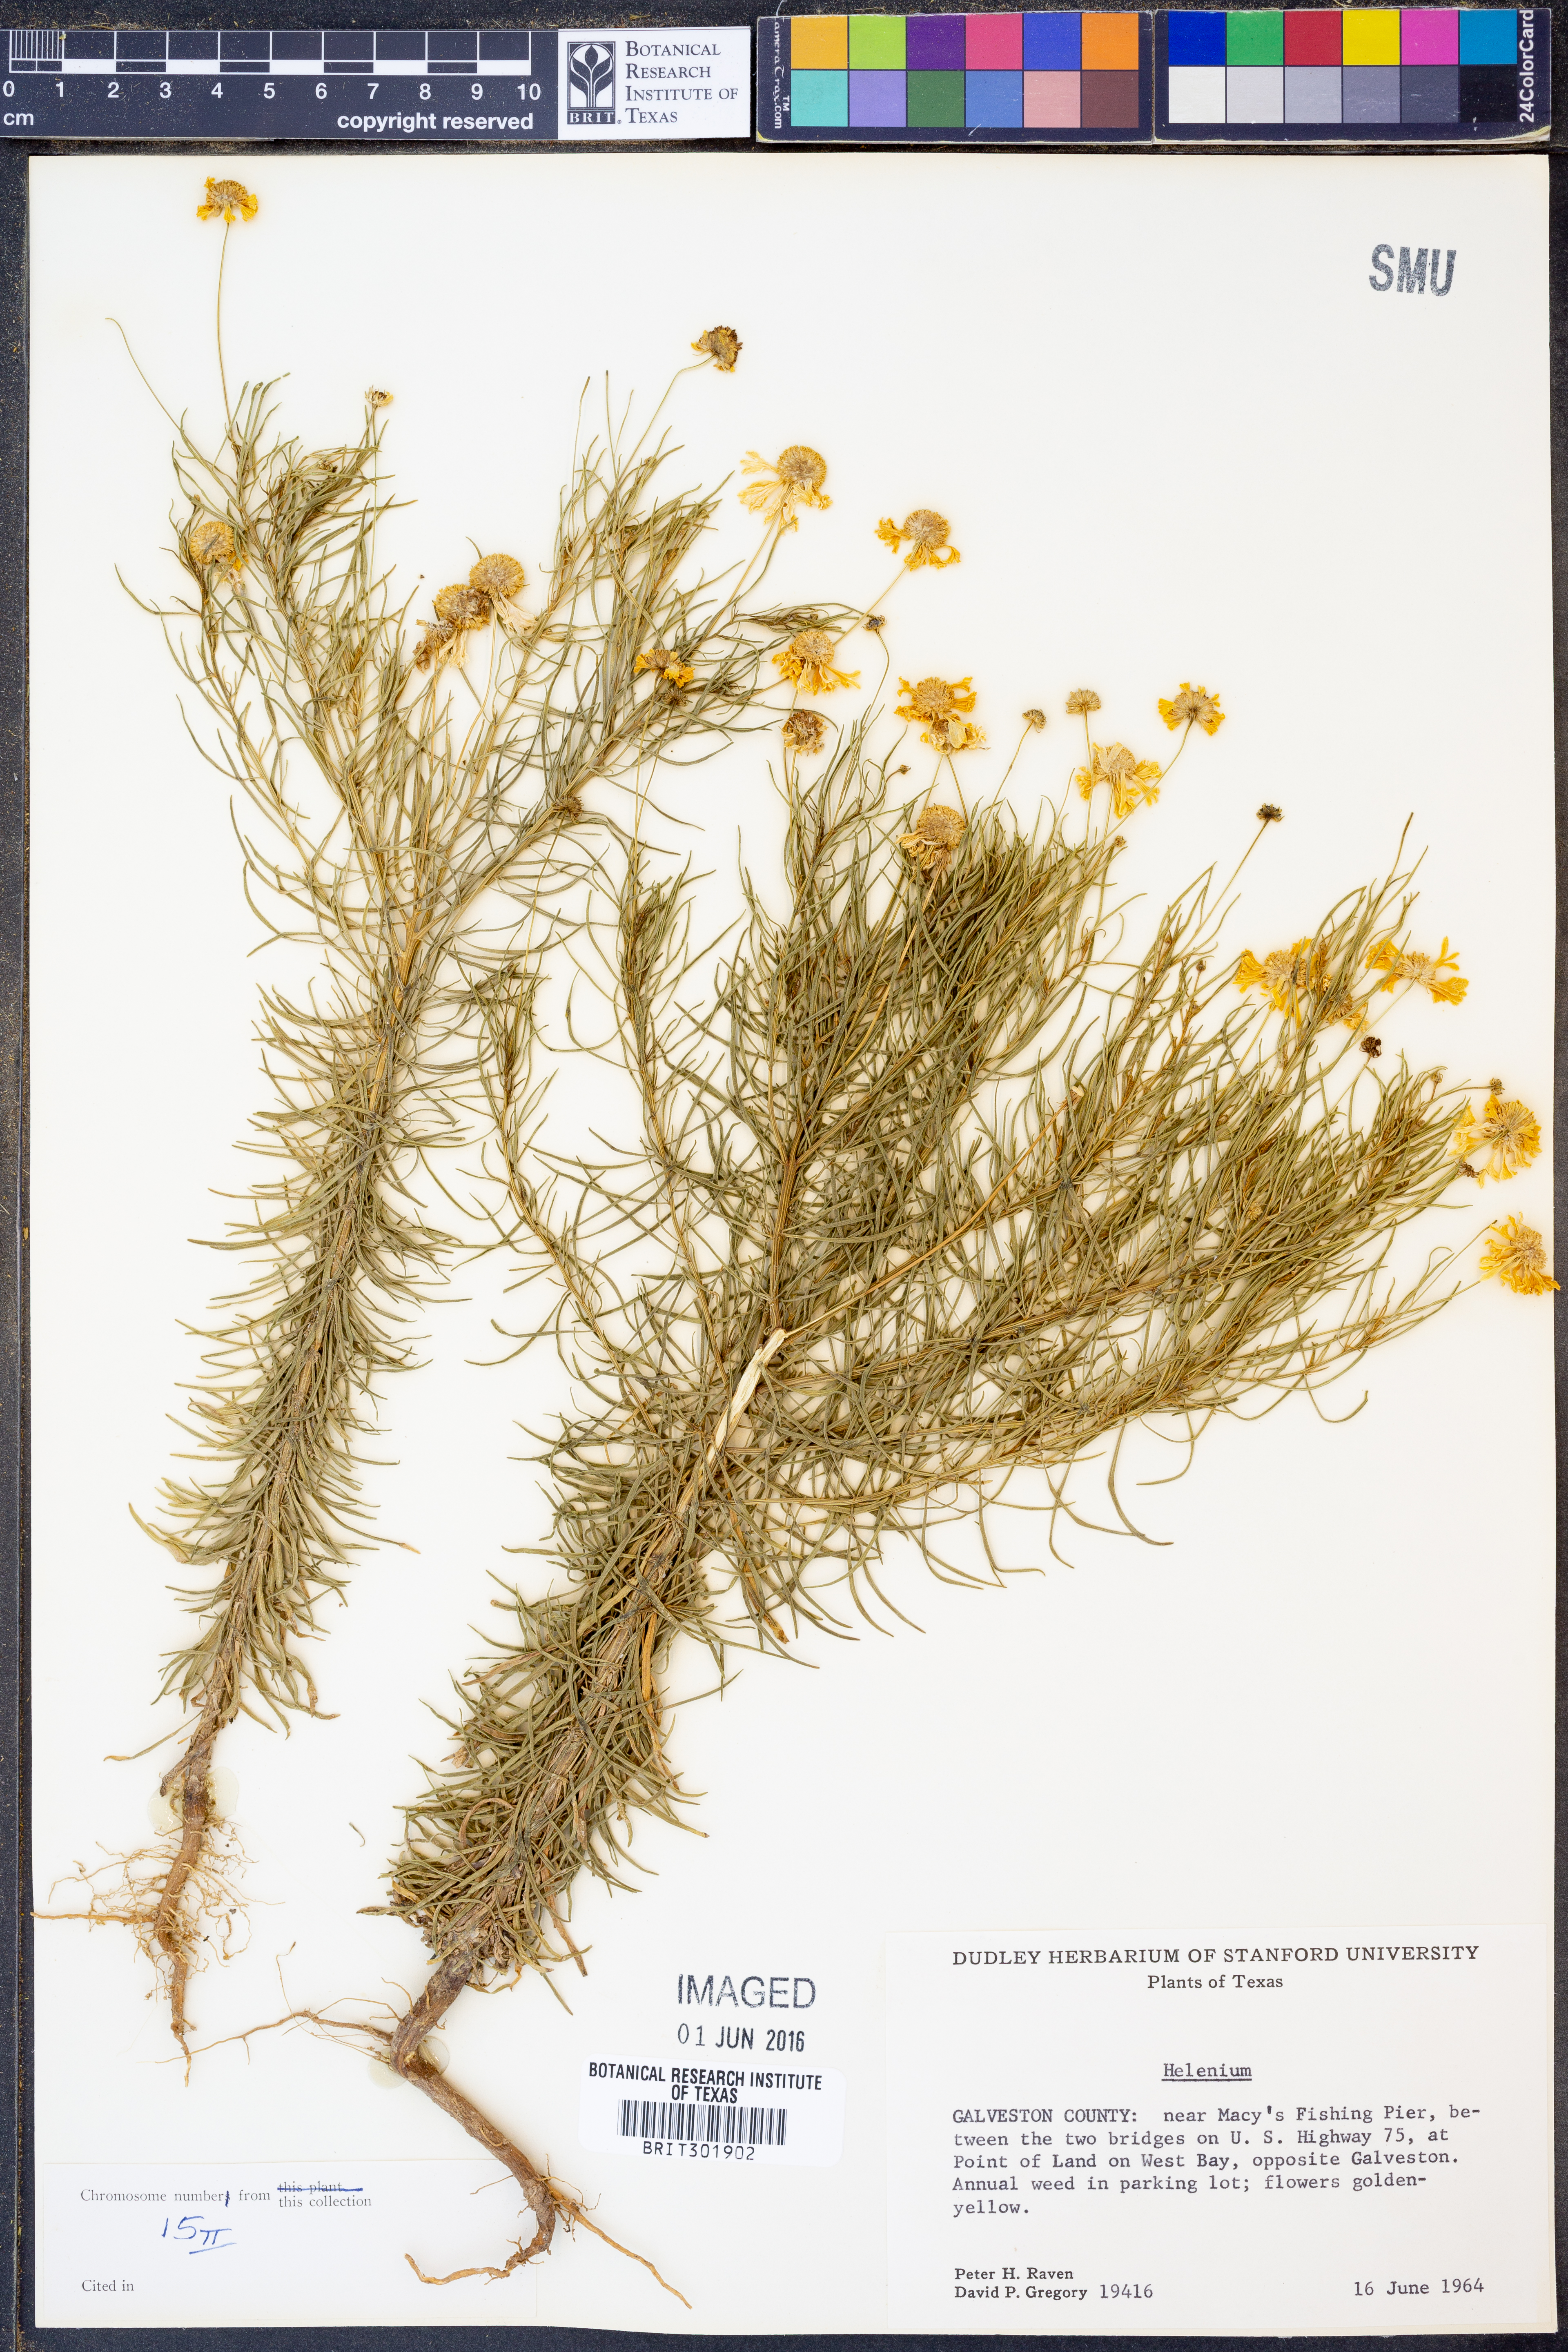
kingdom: Plantae
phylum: Tracheophyta
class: Magnoliopsida
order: Asterales
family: Asteraceae
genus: Helenium
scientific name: Helenium
